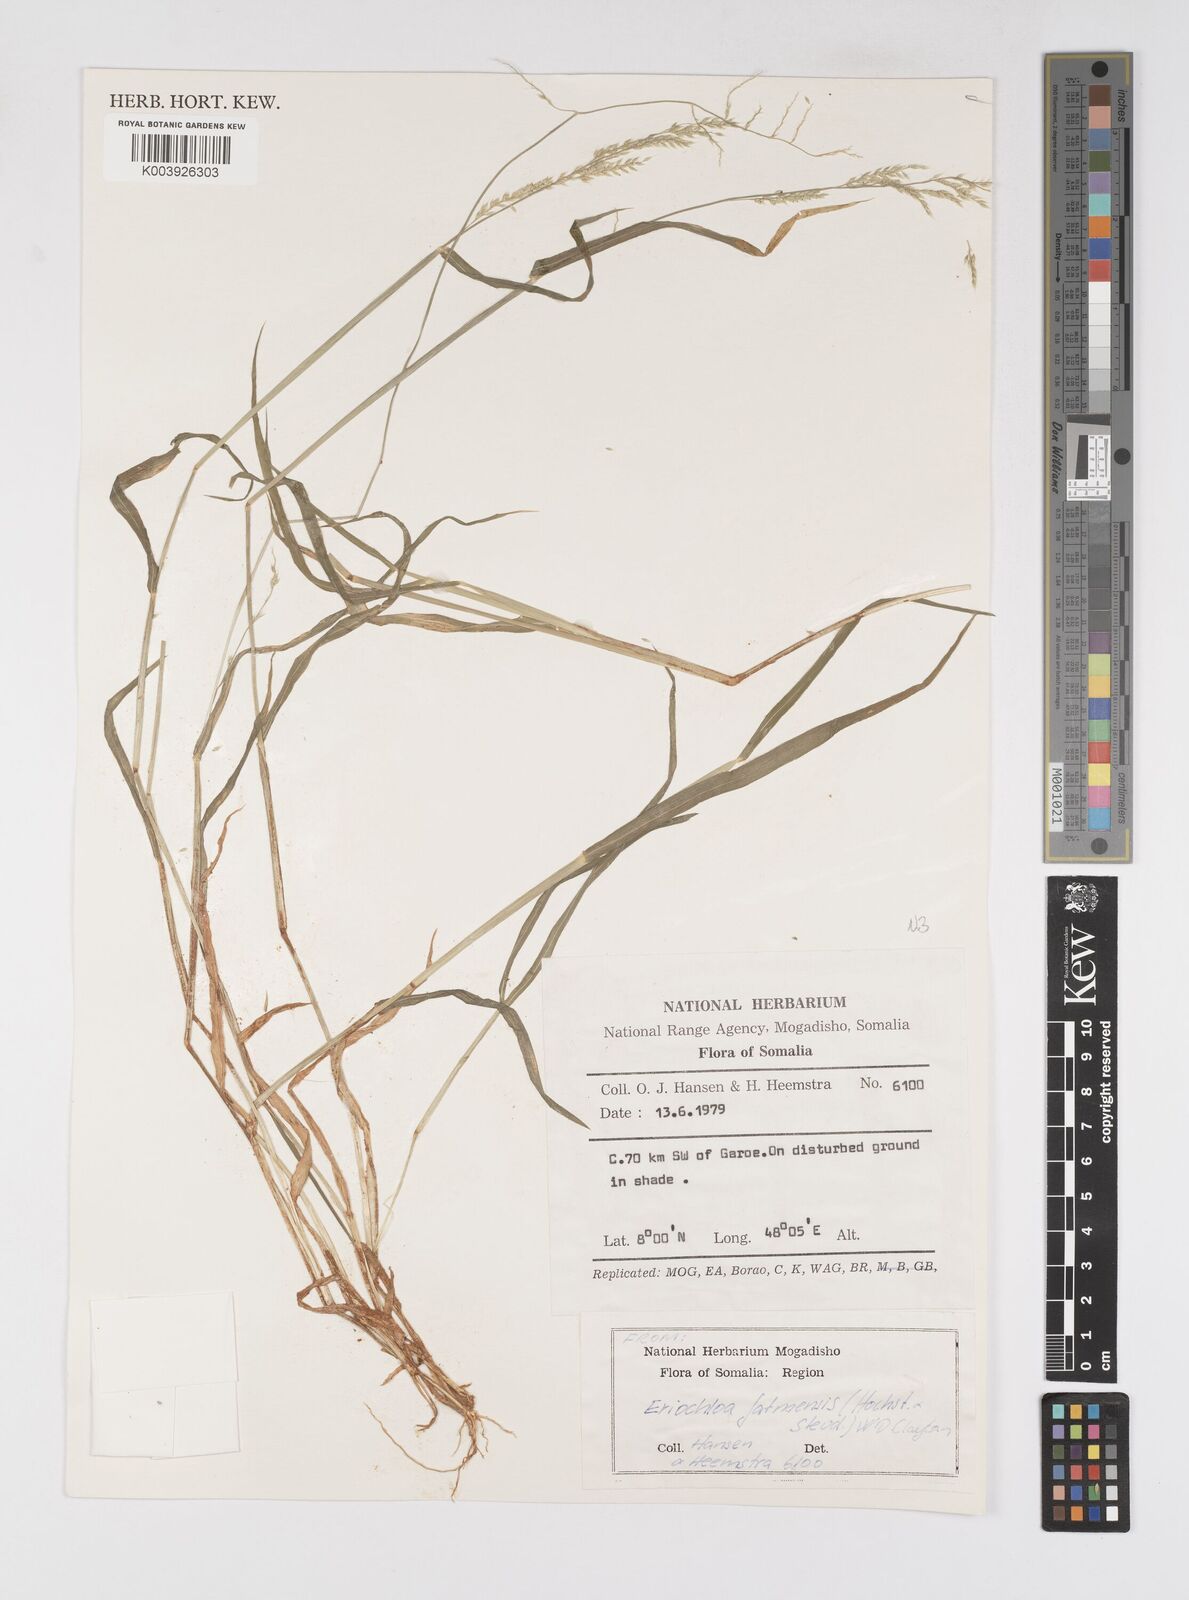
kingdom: Plantae
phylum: Tracheophyta
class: Liliopsida
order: Poales
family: Poaceae
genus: Eriochloa
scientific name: Eriochloa barbatus
